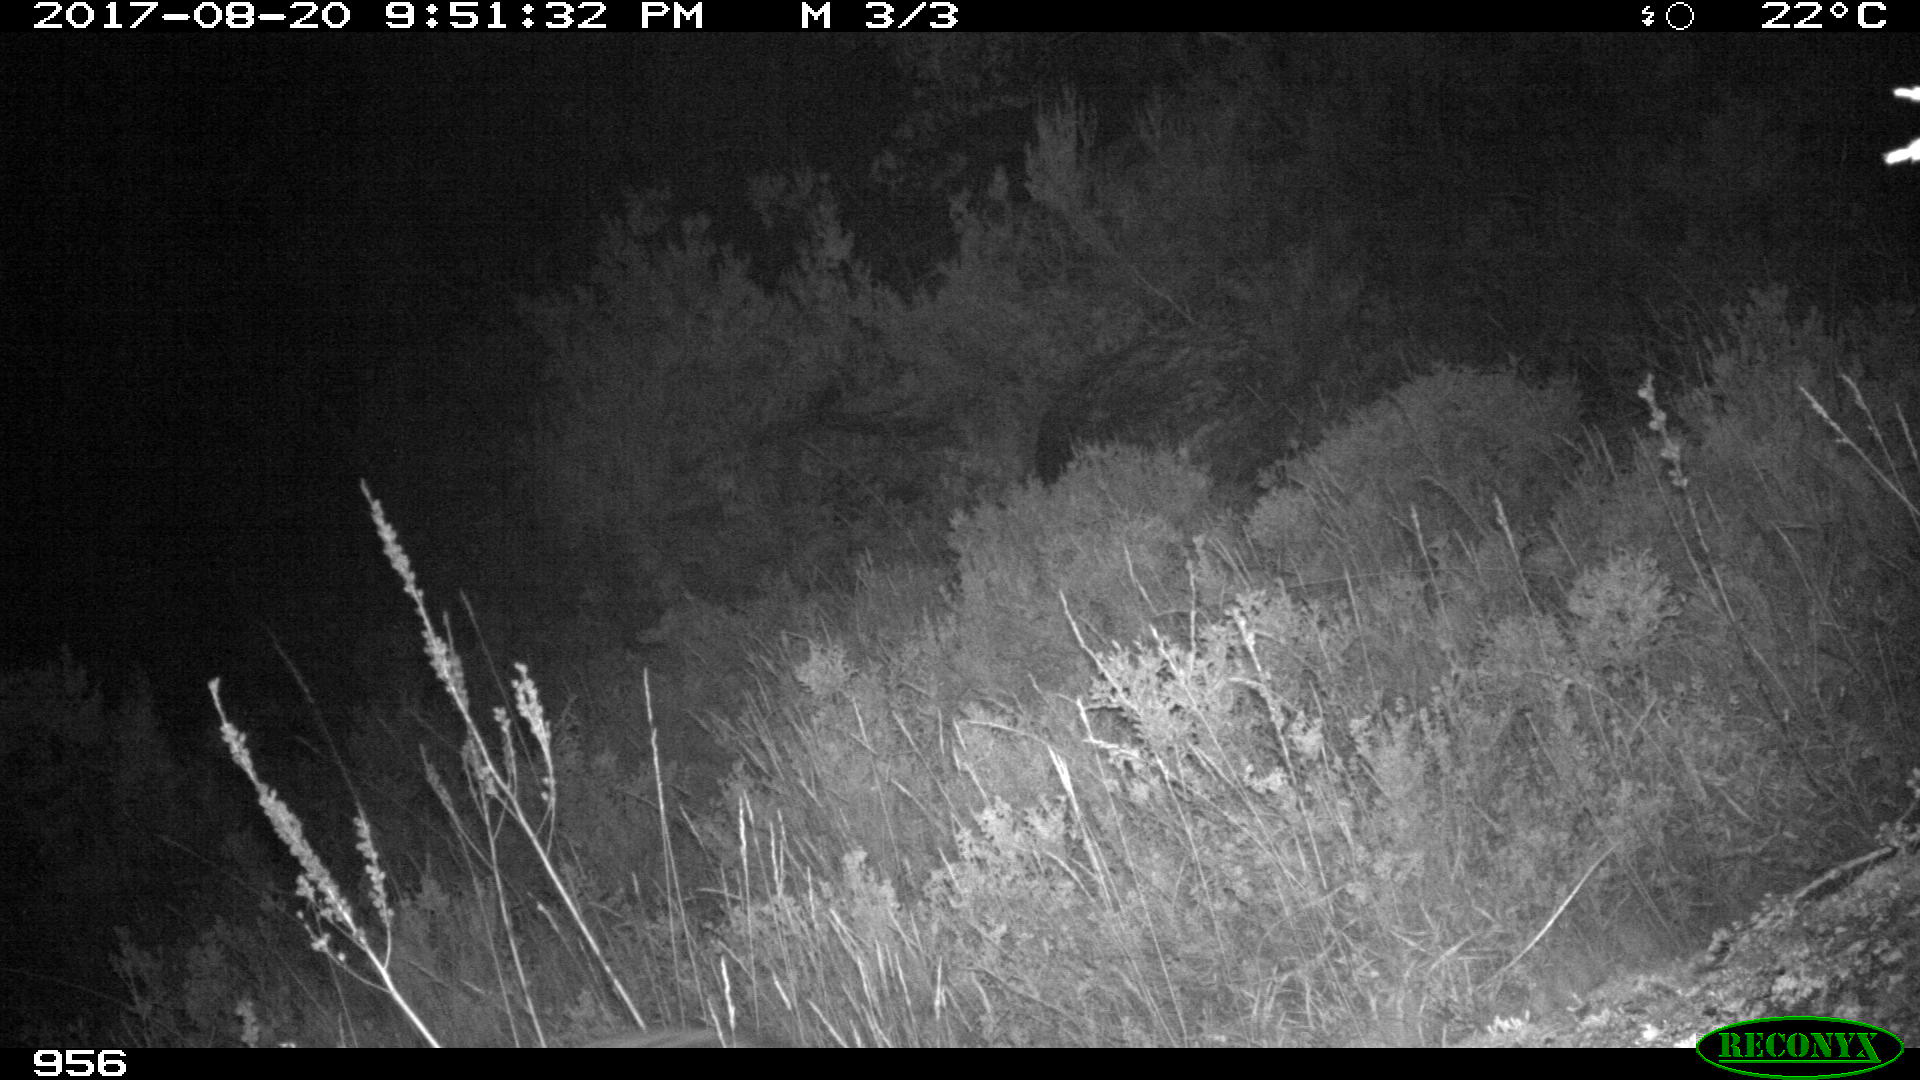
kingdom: Animalia
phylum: Chordata
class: Mammalia
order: Carnivora
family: Canidae
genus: Canis
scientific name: Canis lupus
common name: Gray wolf
